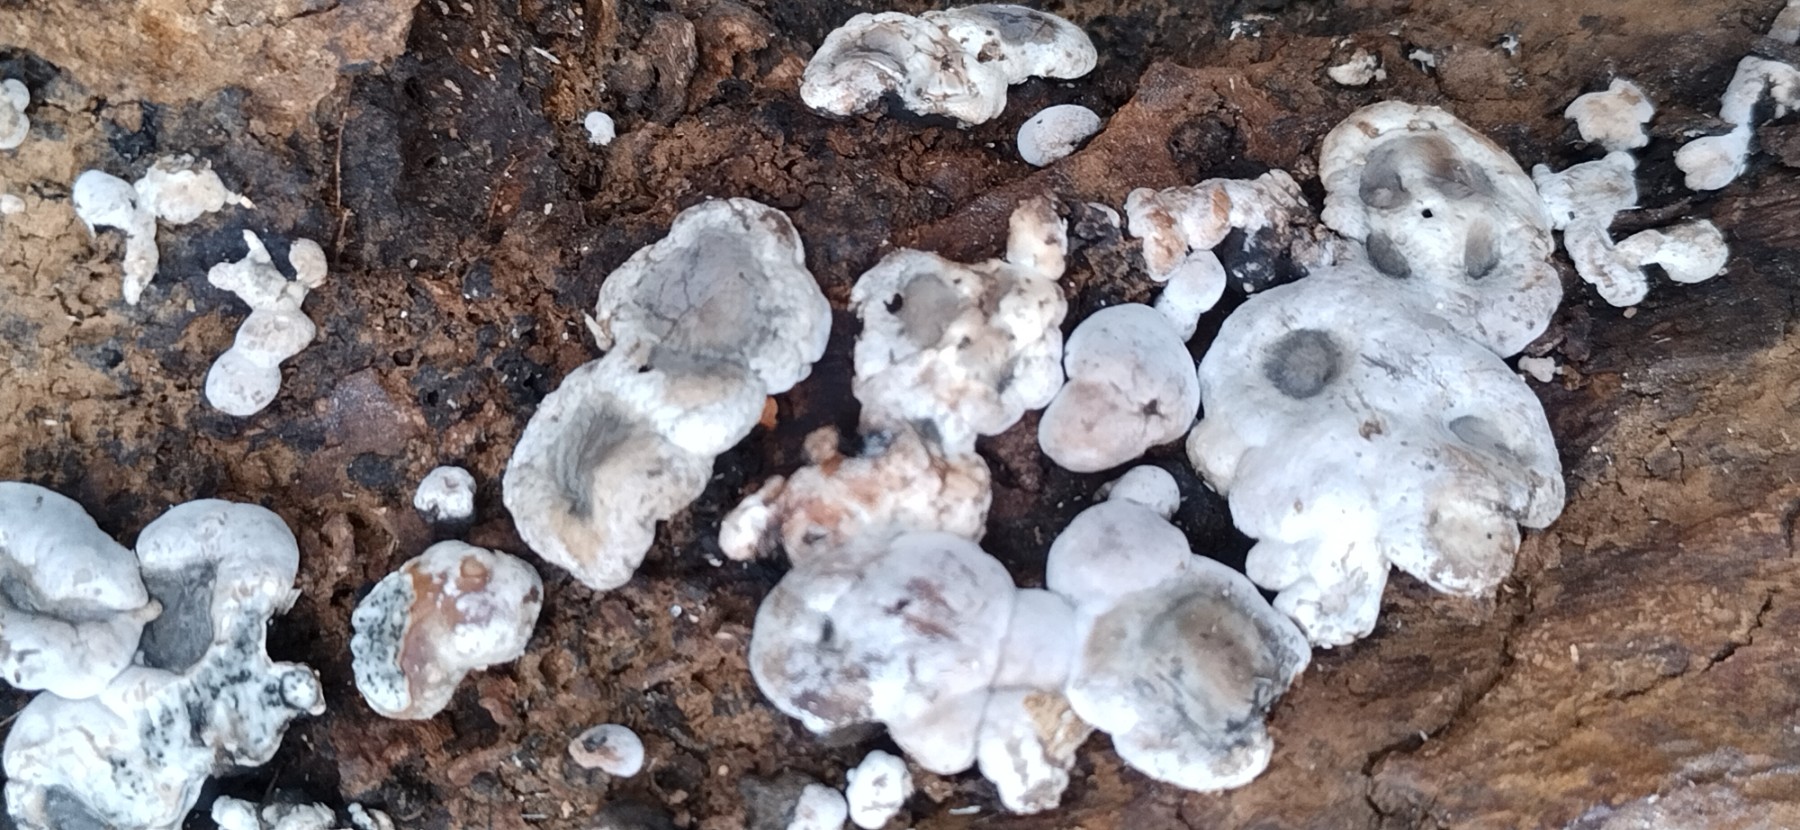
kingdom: Fungi
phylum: Ascomycota
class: Sordariomycetes
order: Xylariales
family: Xylariaceae
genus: Kretzschmaria
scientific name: Kretzschmaria deusta
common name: stor kulsvamp
